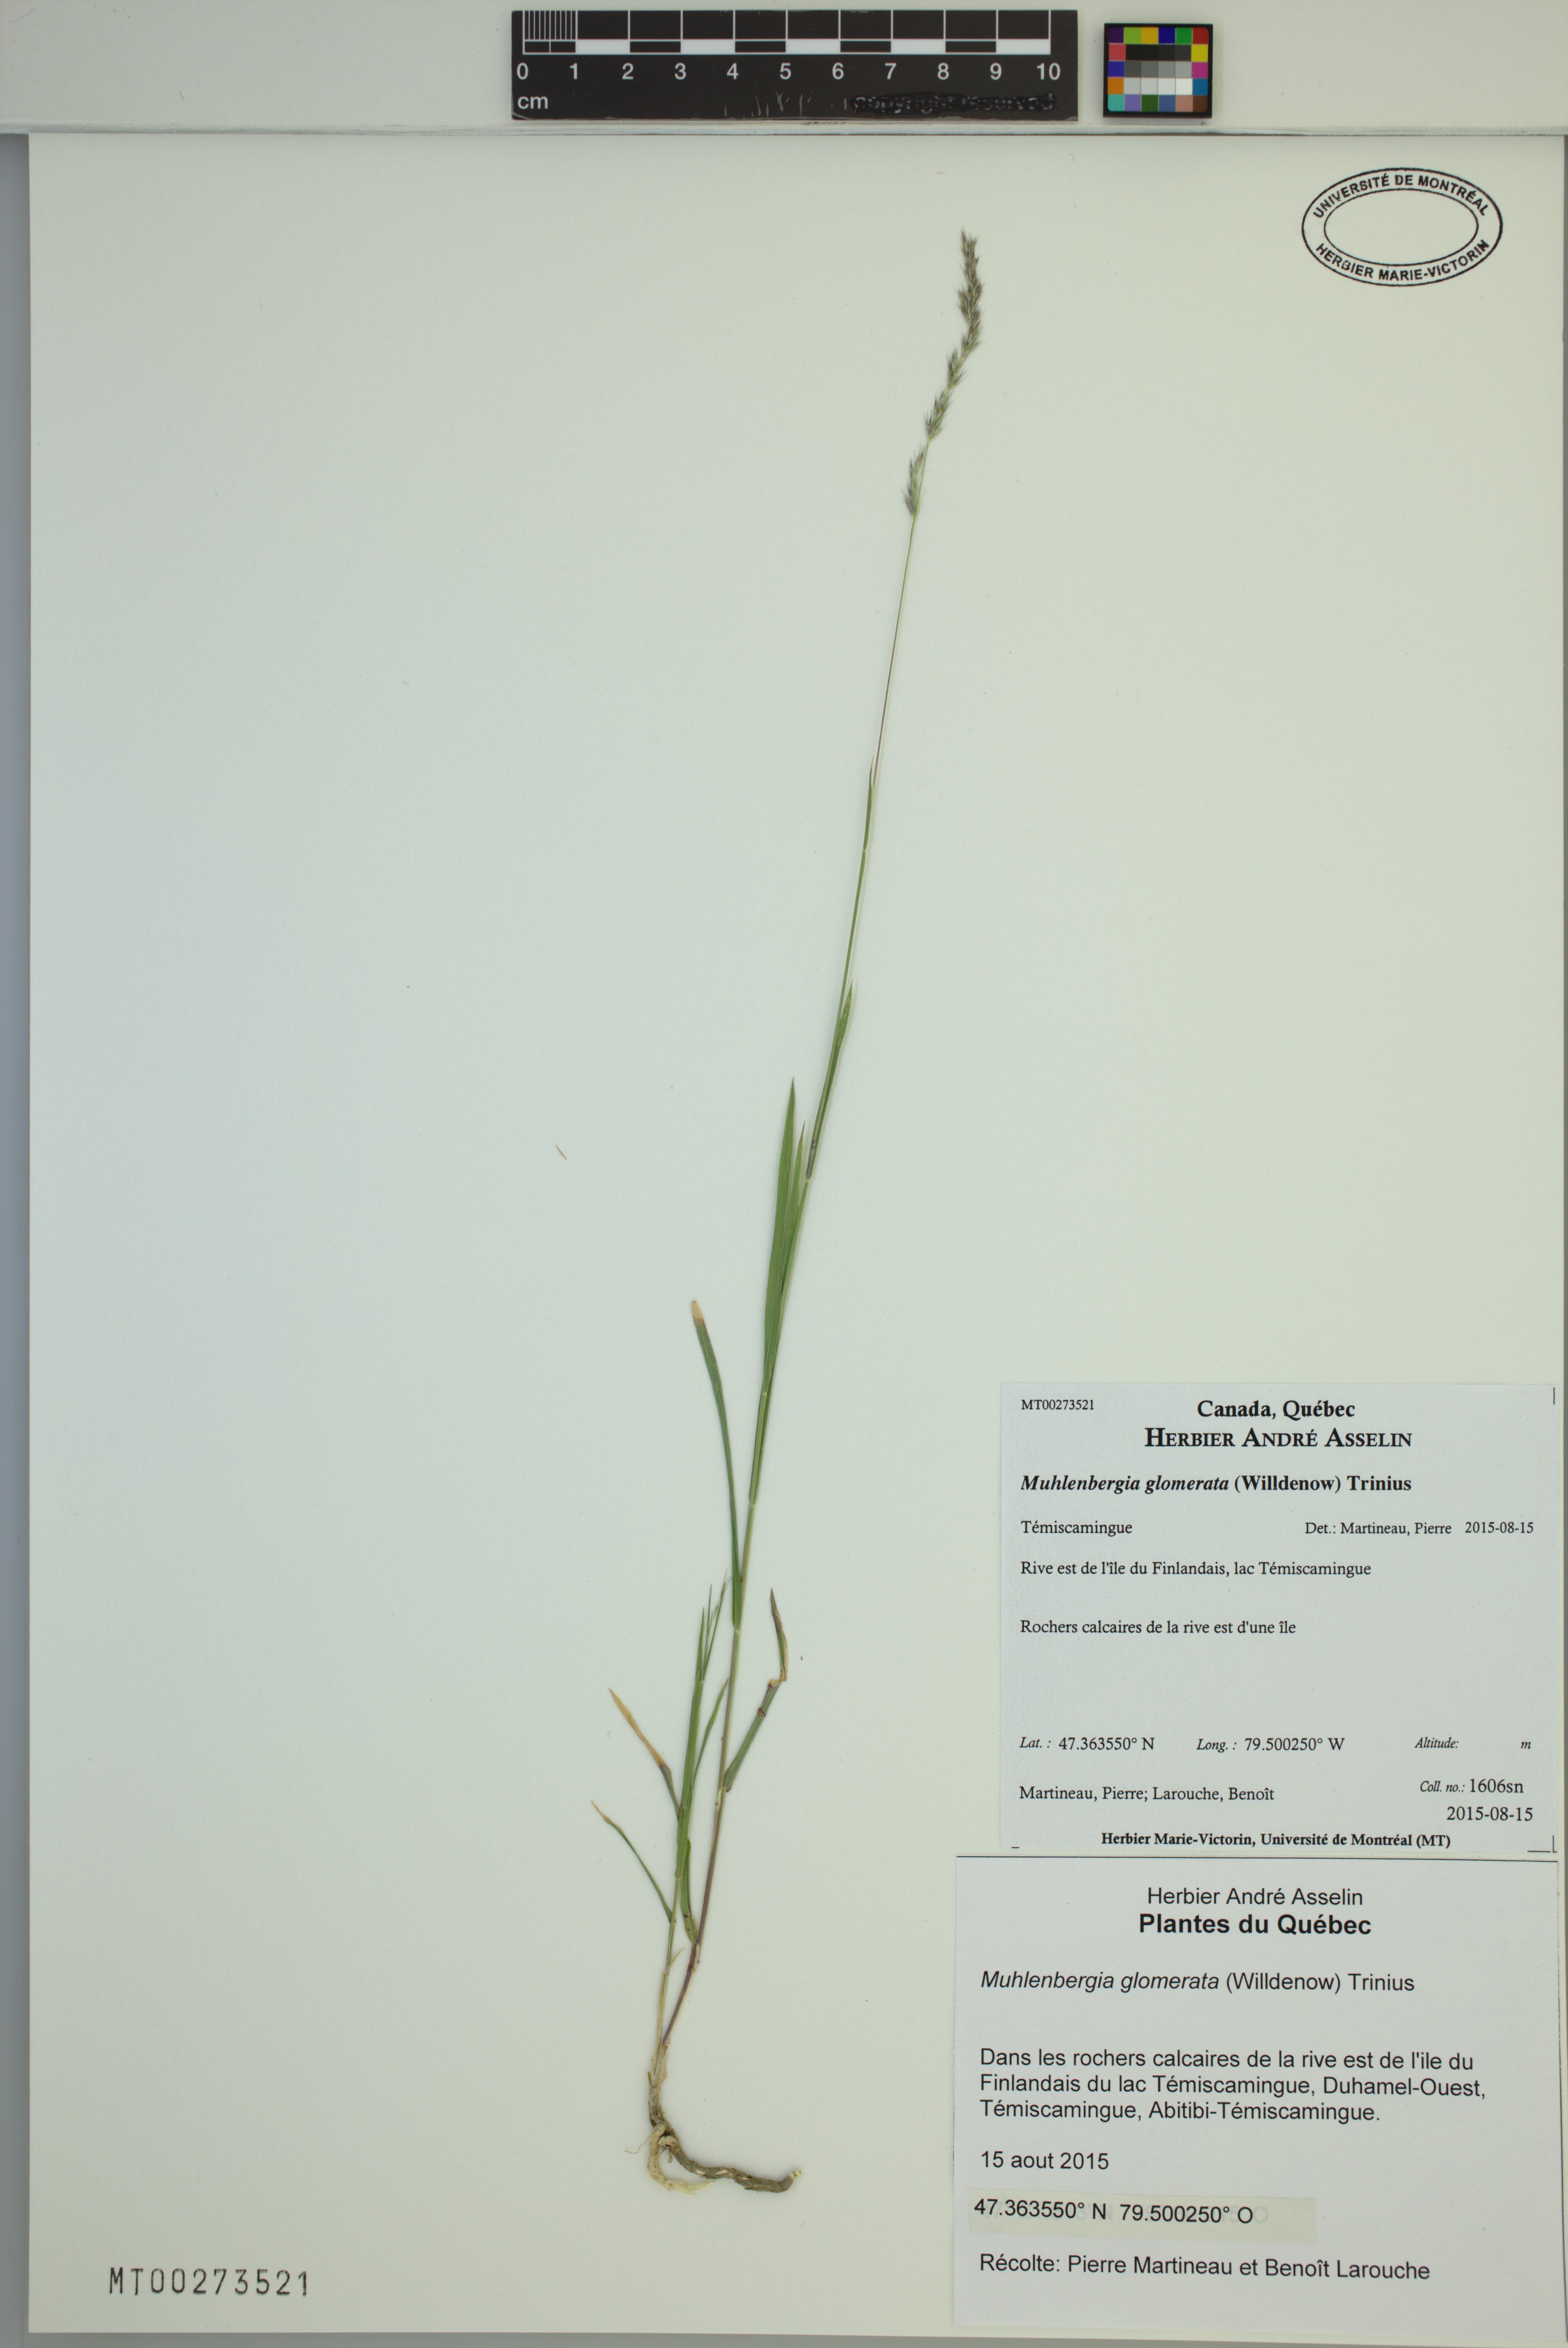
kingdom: Plantae
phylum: Tracheophyta
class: Liliopsida
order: Poales
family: Poaceae
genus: Muhlenbergia
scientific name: Muhlenbergia glomerata
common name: Bog muhly
